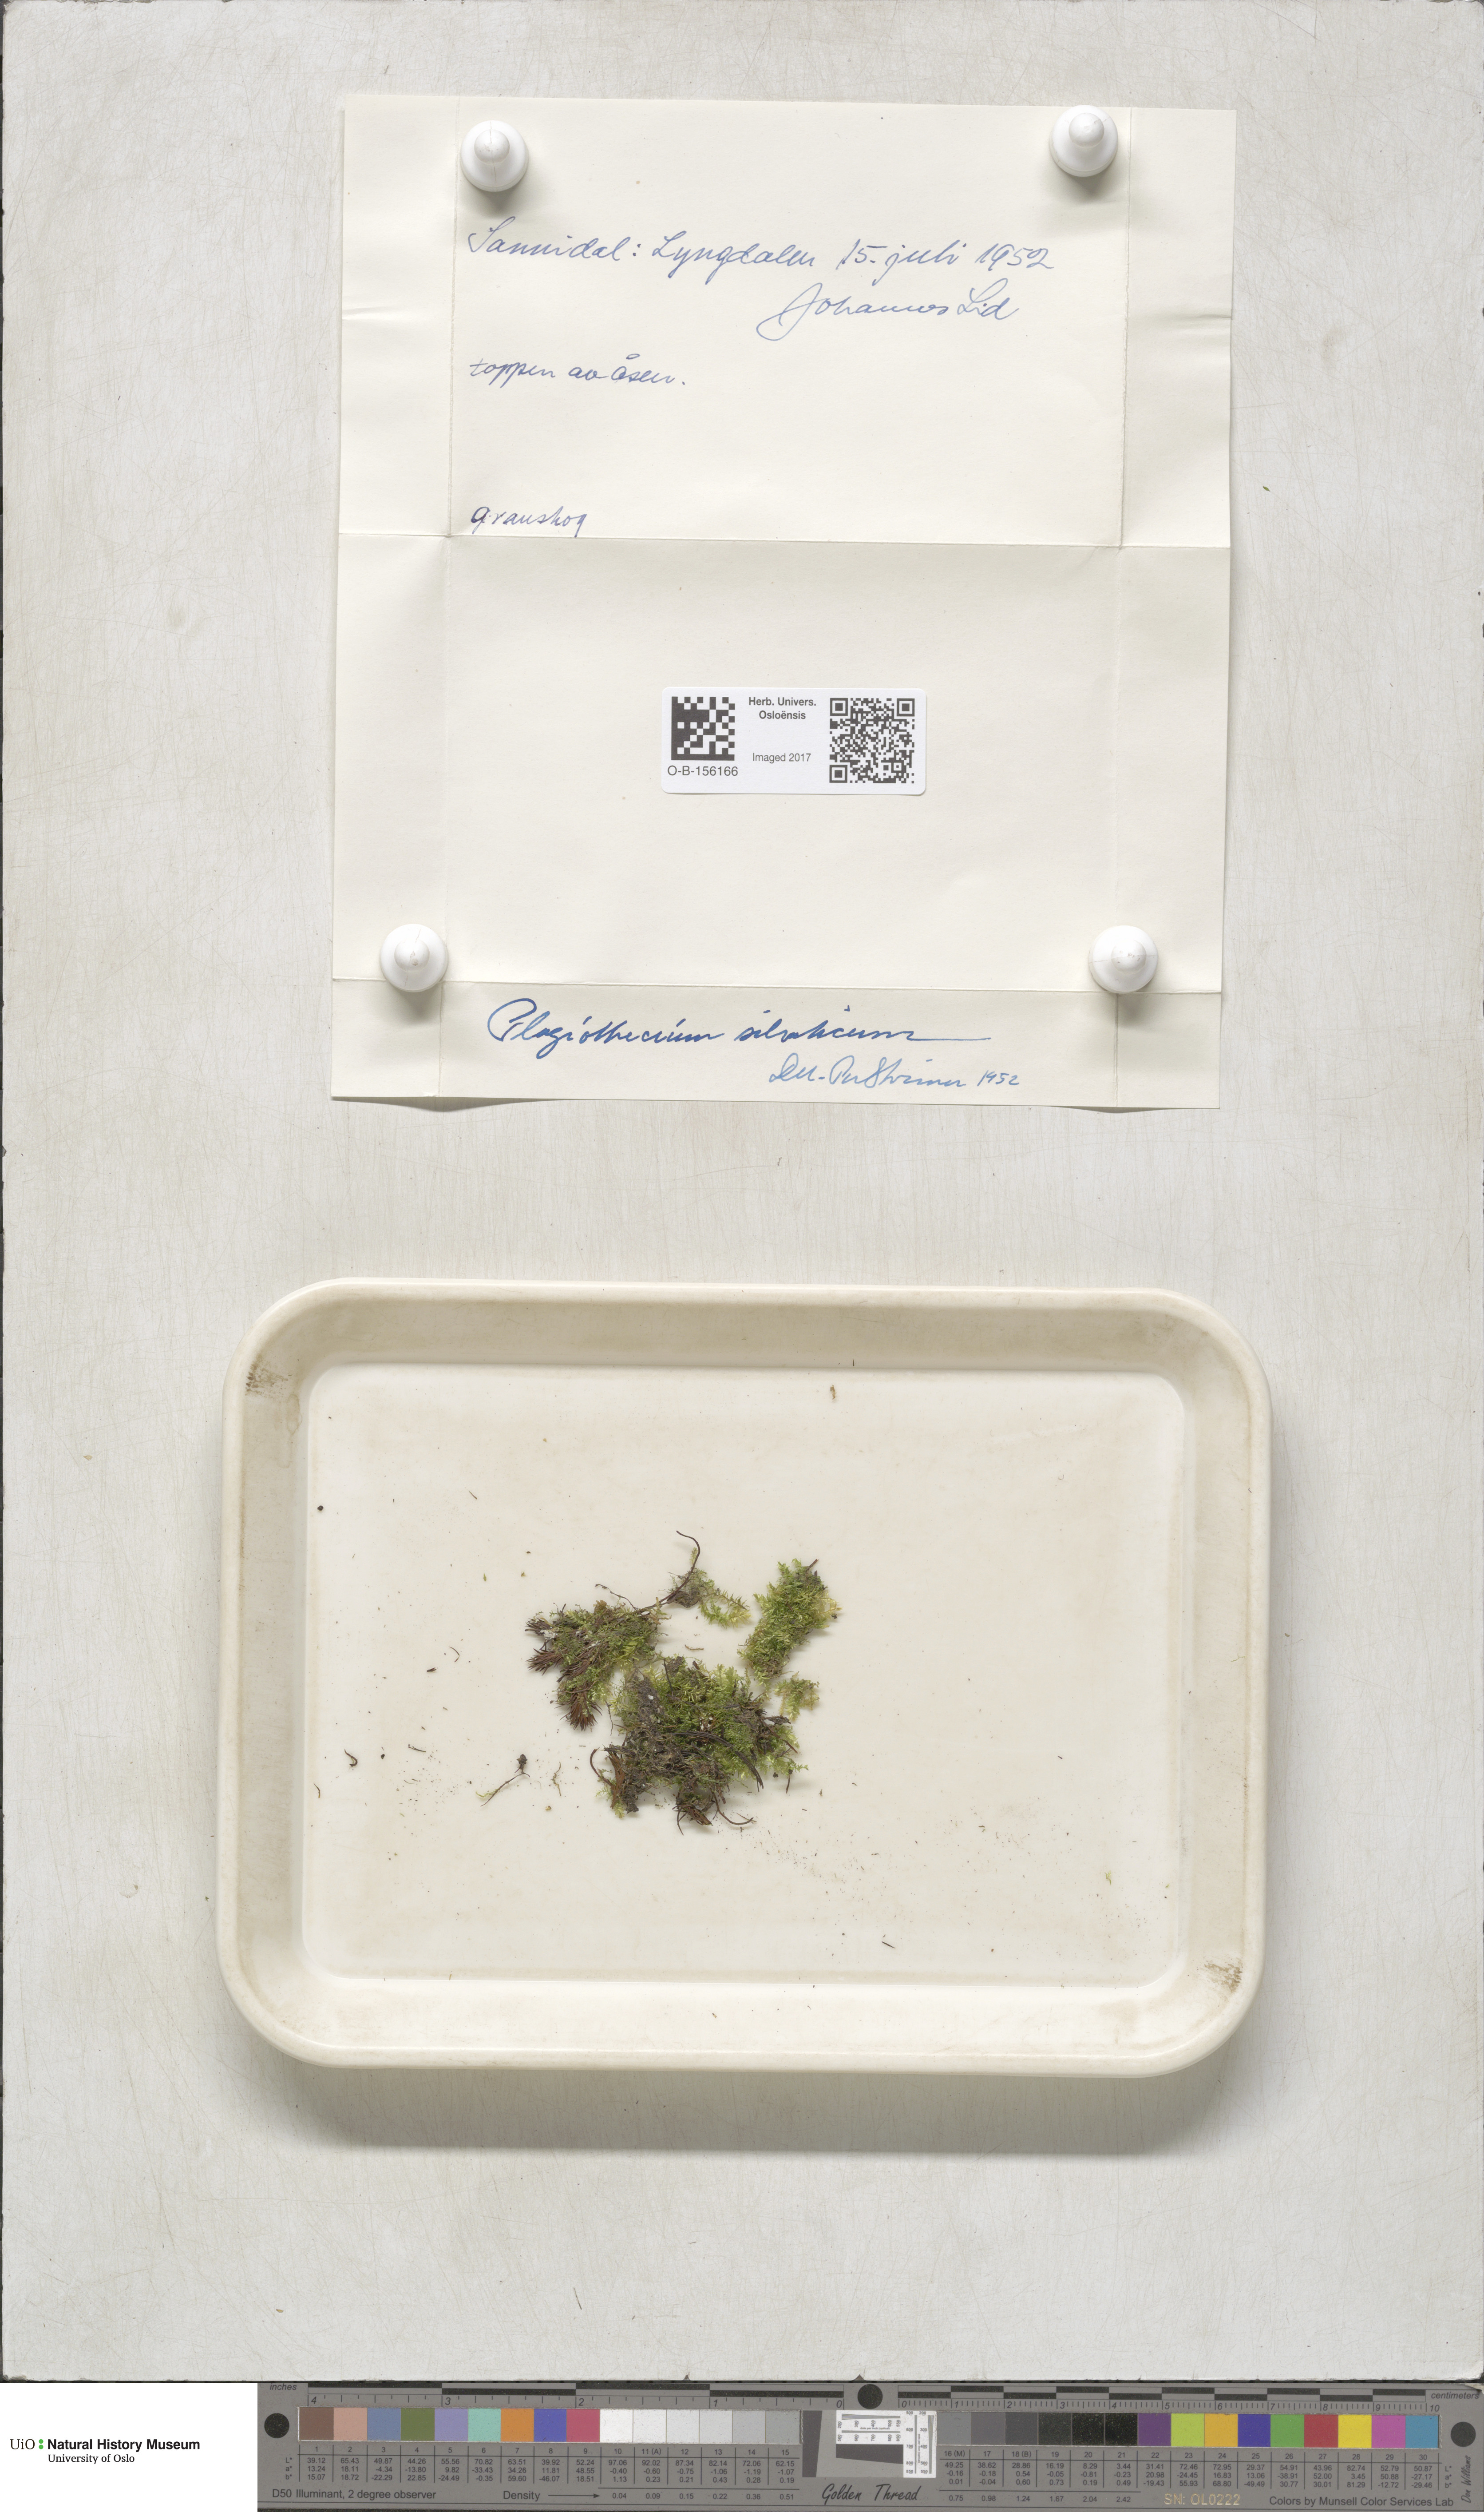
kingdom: Plantae
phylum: Bryophyta
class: Bryopsida
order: Hypnales
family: Plagiotheciaceae
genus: Plagiothecium
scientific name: Plagiothecium nemorale
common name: Woodsy silk-moss
